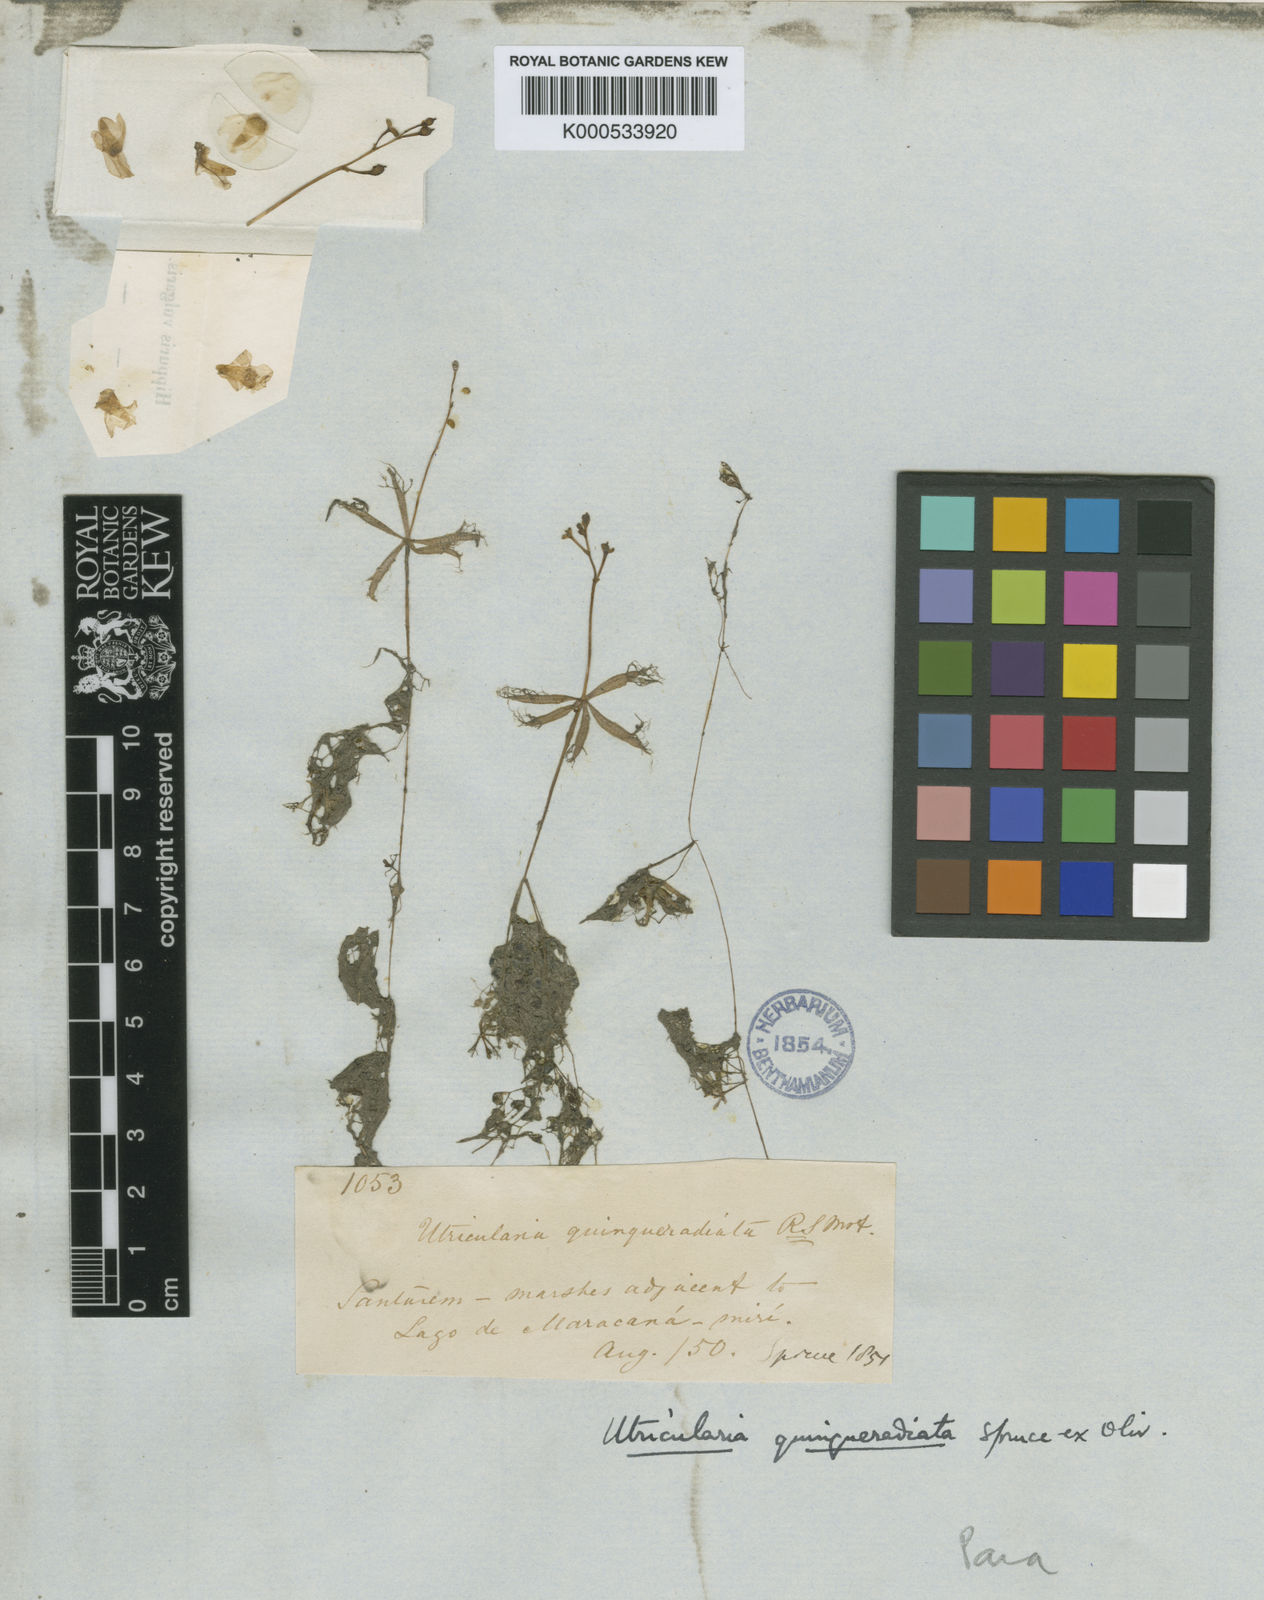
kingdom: Plantae
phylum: Tracheophyta
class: Magnoliopsida
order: Lamiales
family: Lentibulariaceae
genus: Utricularia
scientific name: Utricularia breviscapa
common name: Bladderwort
